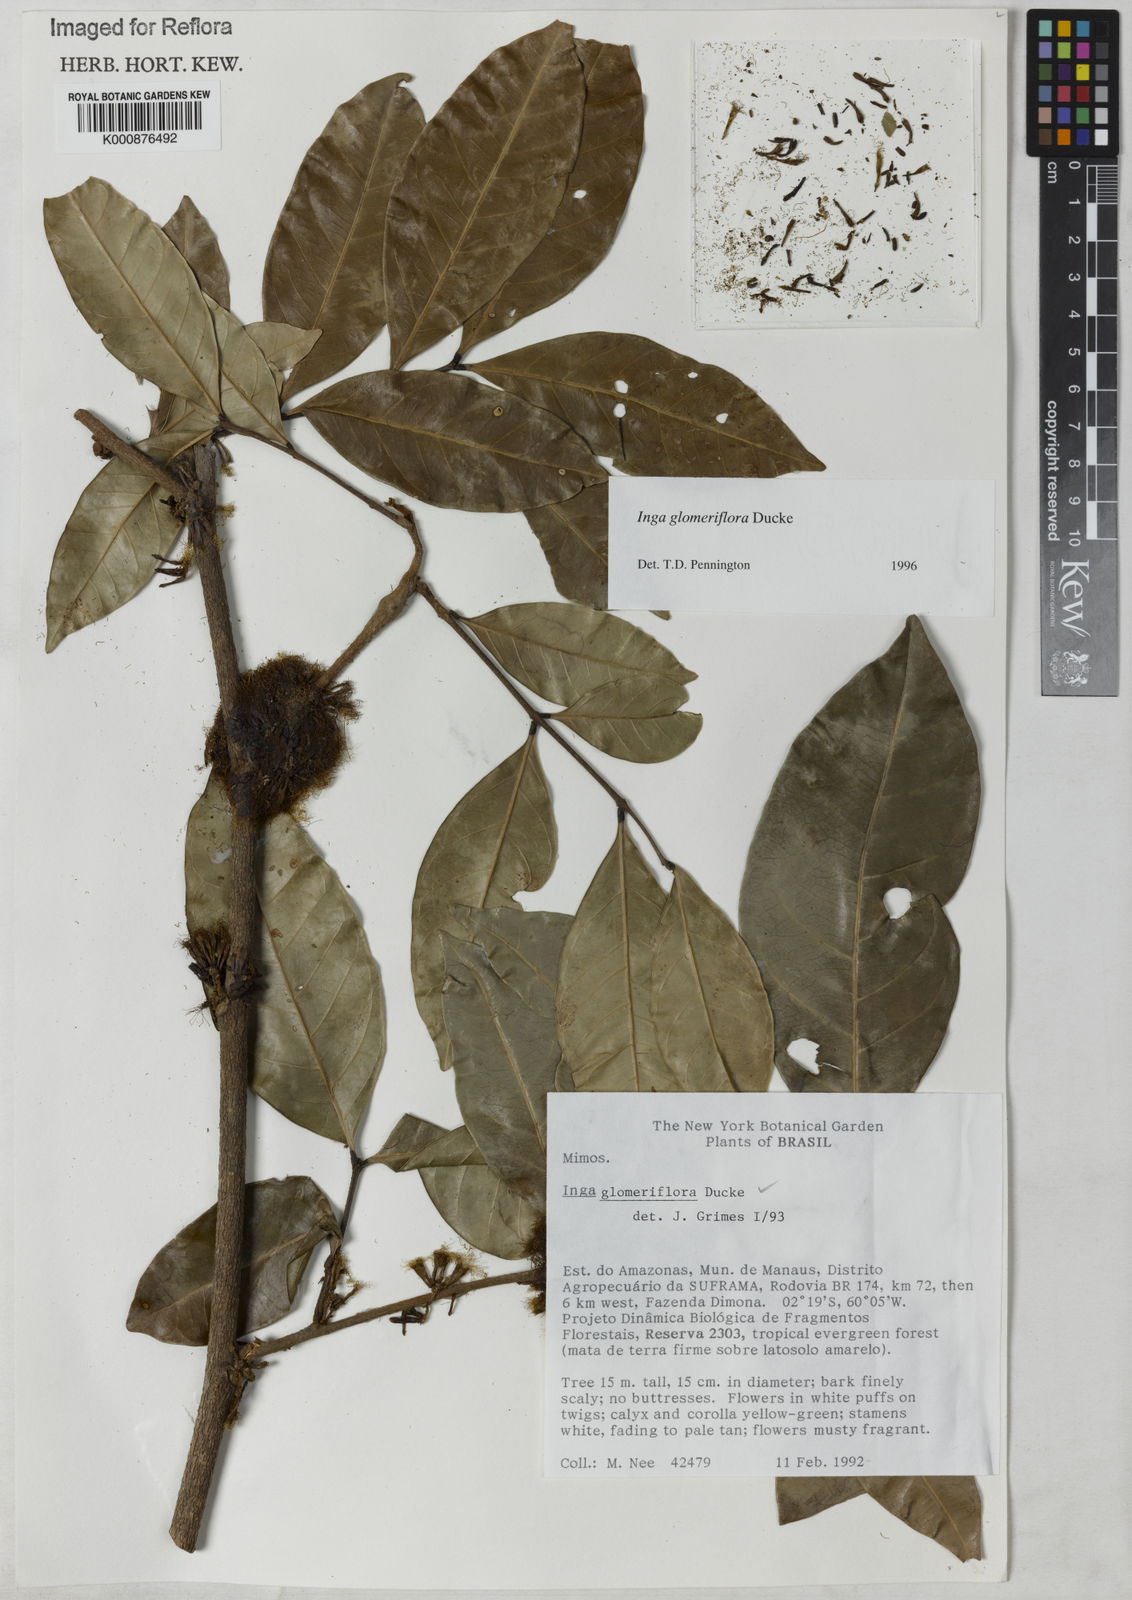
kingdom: Plantae
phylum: Tracheophyta
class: Magnoliopsida
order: Fabales
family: Fabaceae
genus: Inga
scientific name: Inga glomeriflora
